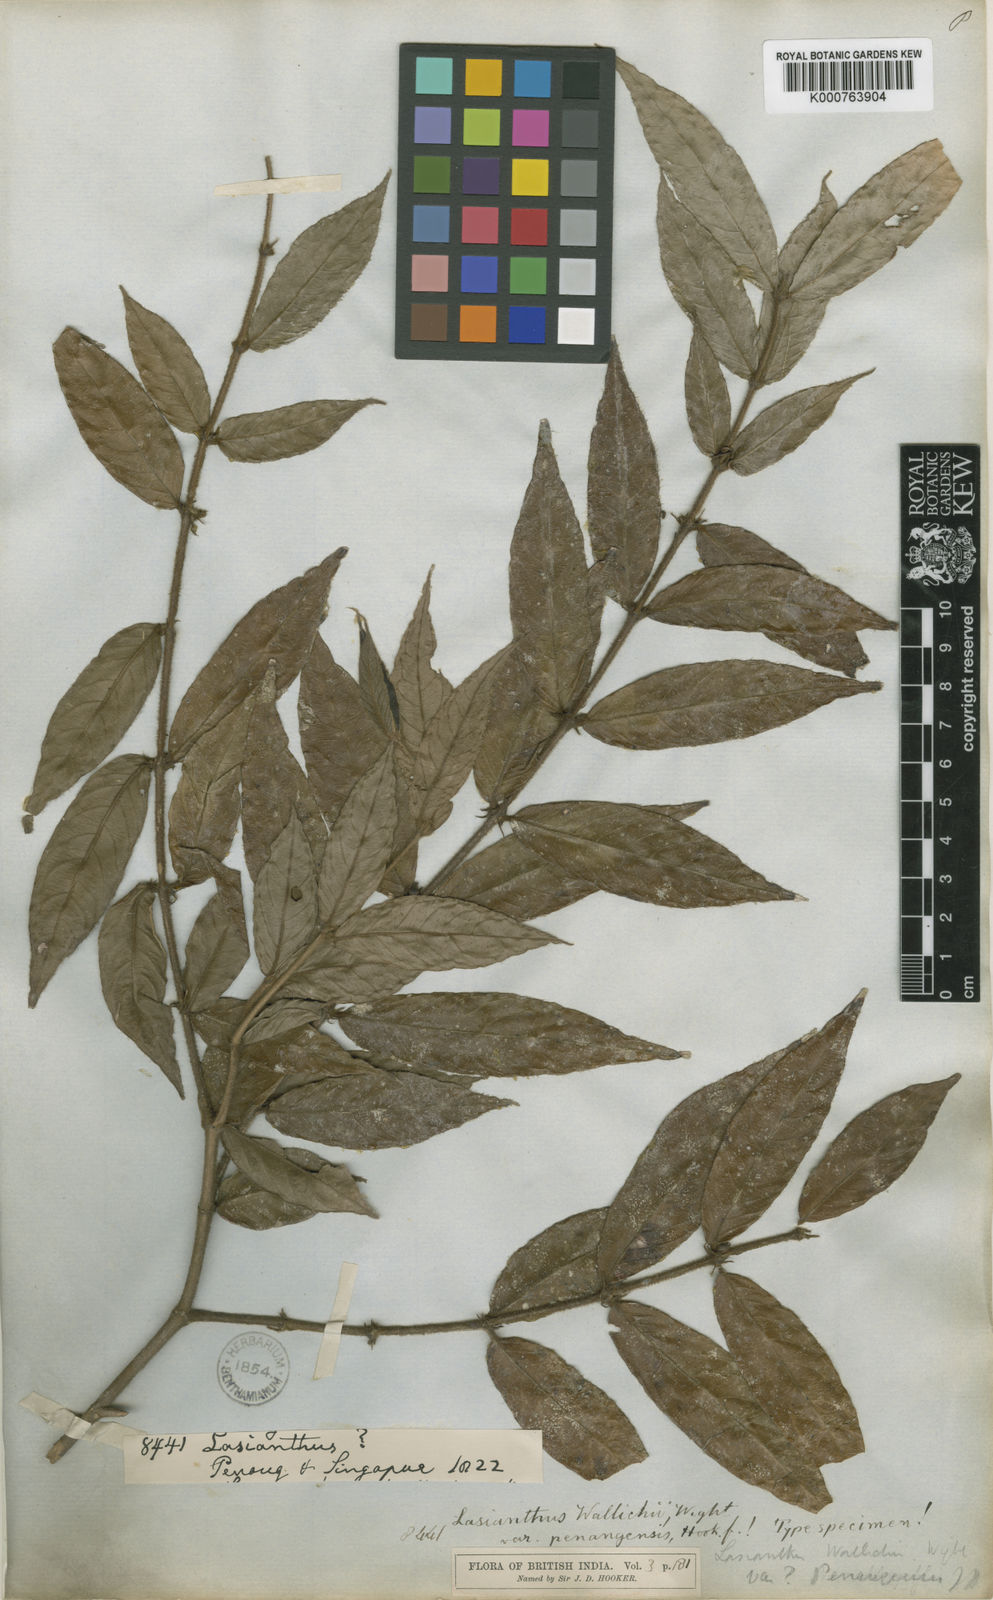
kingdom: Plantae
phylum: Tracheophyta
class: Magnoliopsida
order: Gentianales
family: Rubiaceae
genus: Lasianthus
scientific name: Lasianthus montanus
